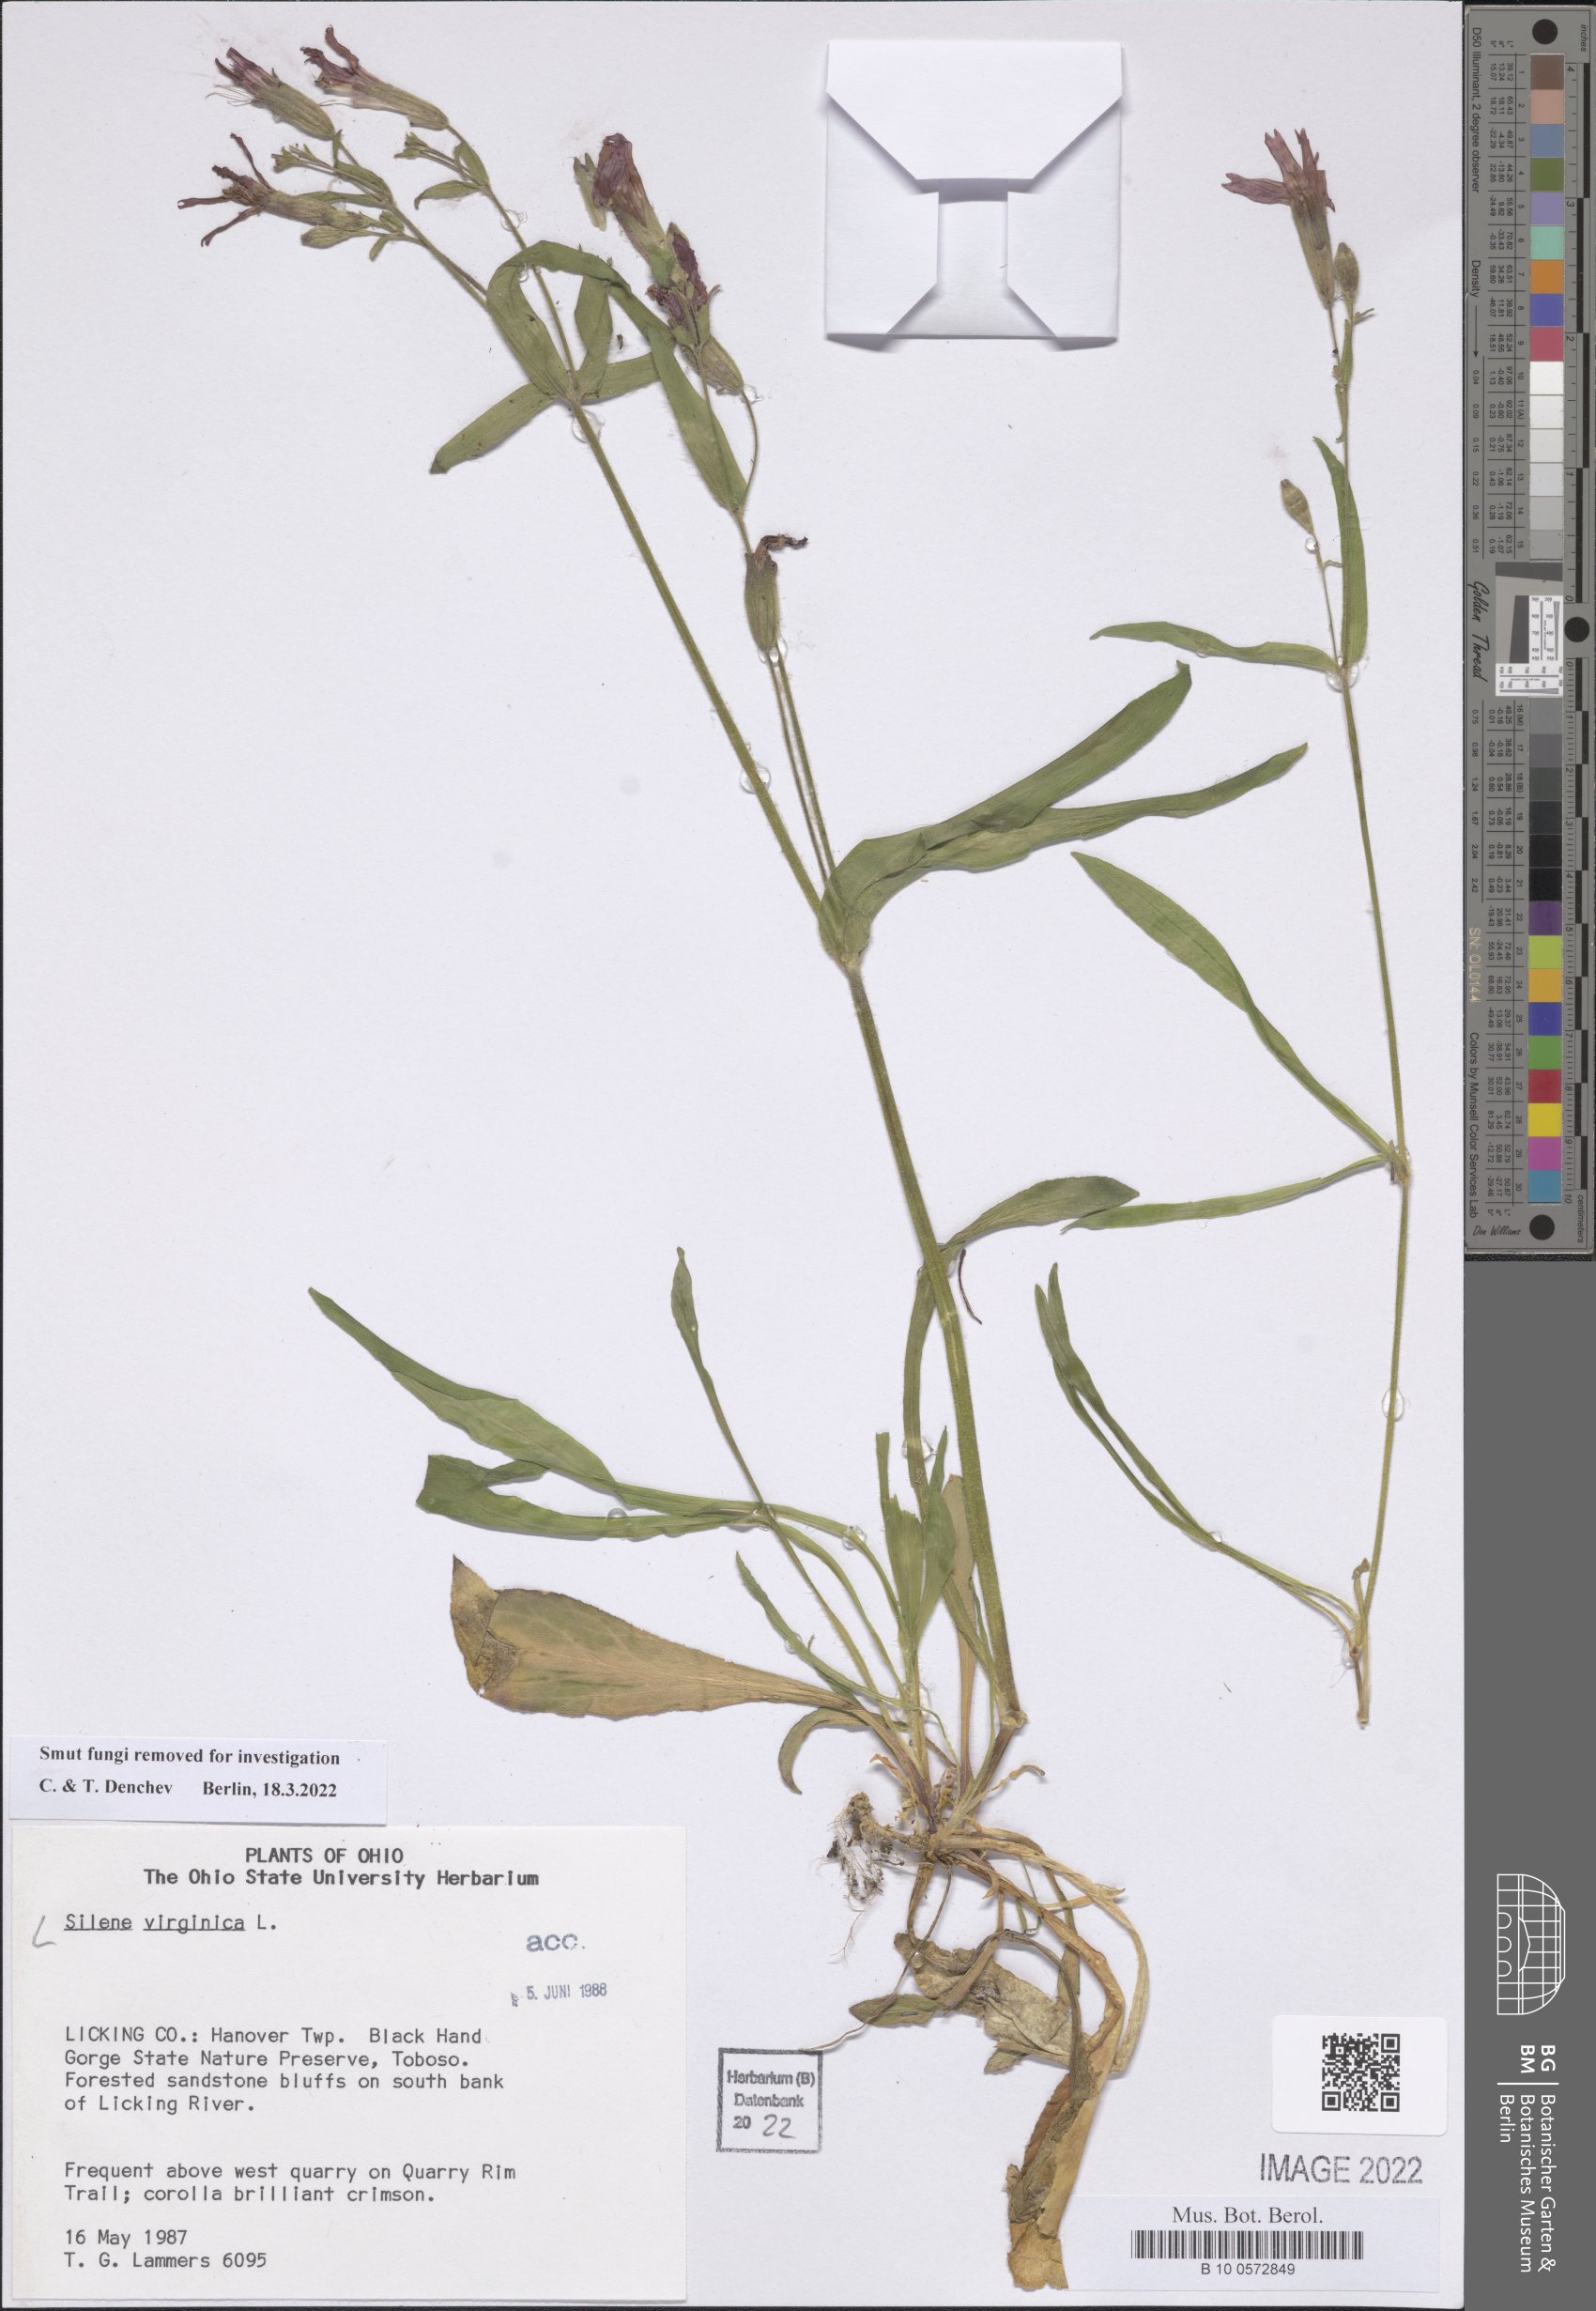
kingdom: Plantae
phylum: Tracheophyta
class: Magnoliopsida
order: Caryophyllales
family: Caryophyllaceae
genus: Silene
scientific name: Silene virginica
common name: Fire-pink
